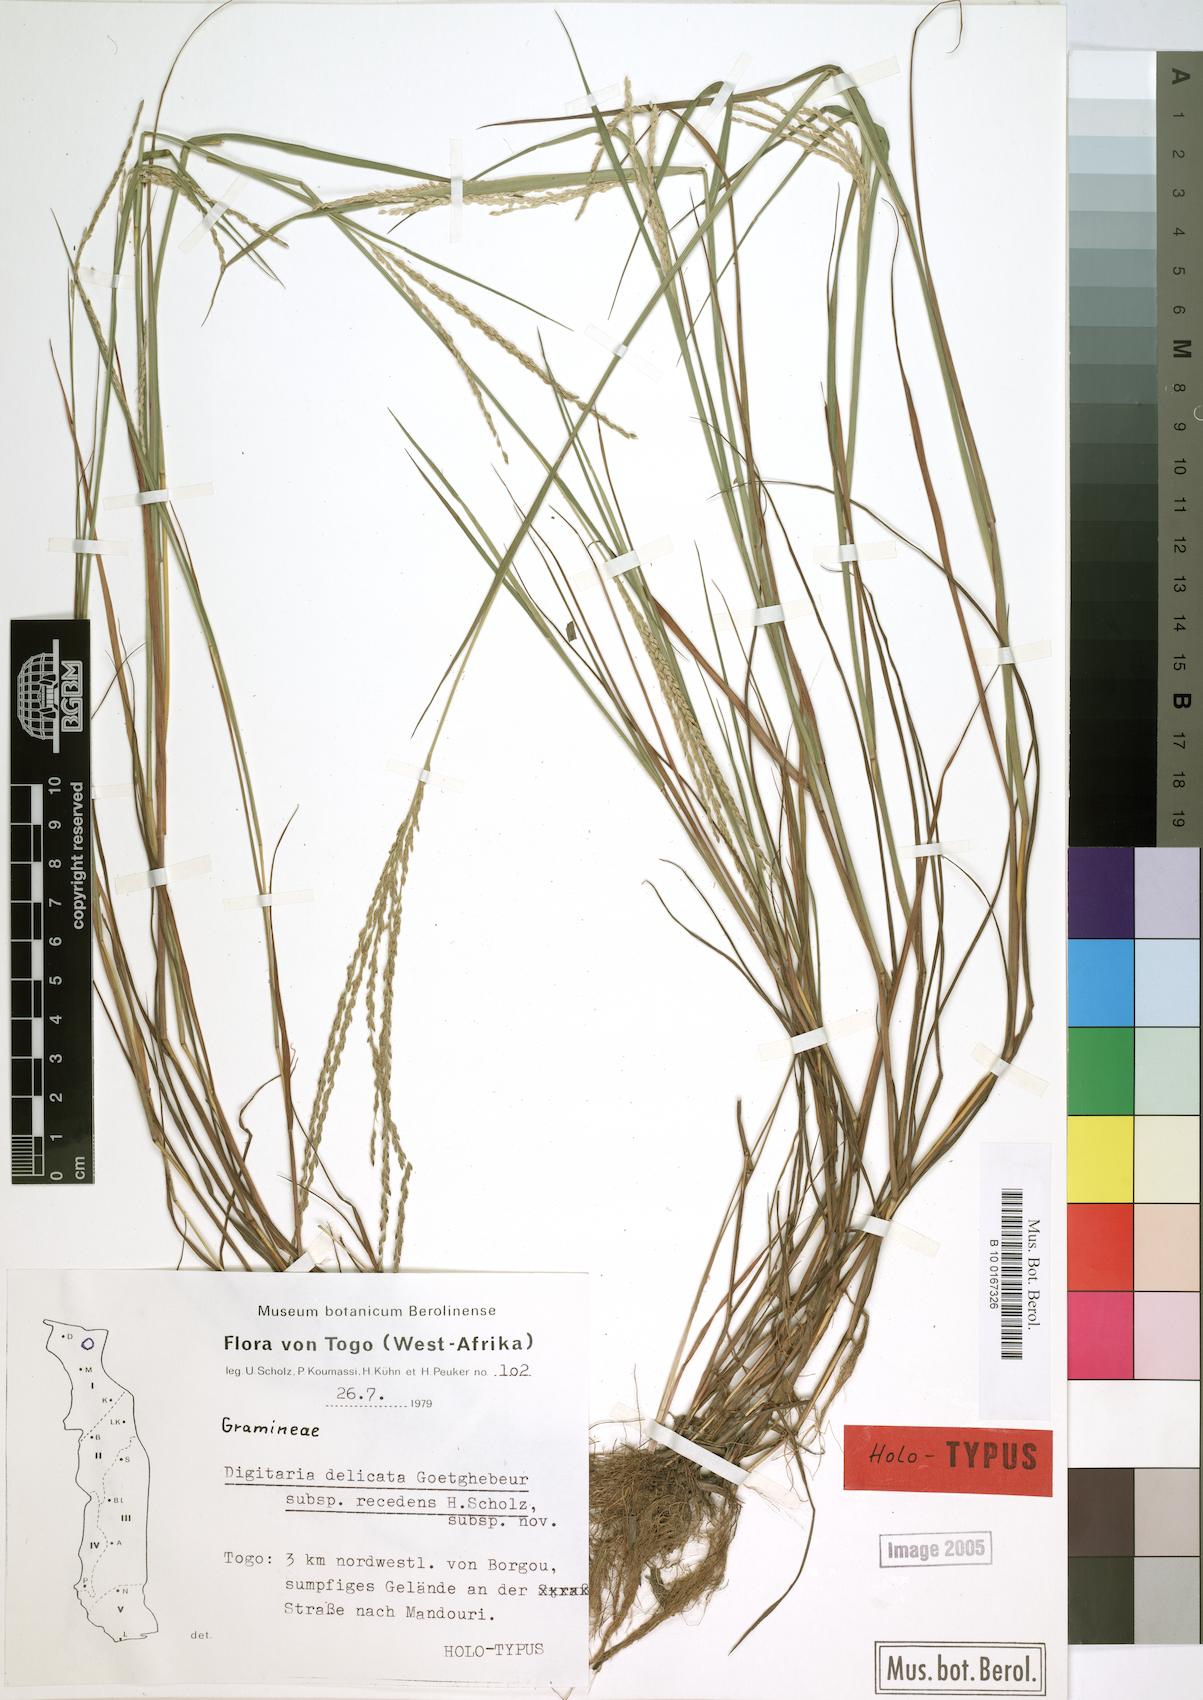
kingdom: Plantae
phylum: Tracheophyta
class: Liliopsida
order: Poales
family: Poaceae
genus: Digitaria
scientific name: Digitaria delicata
